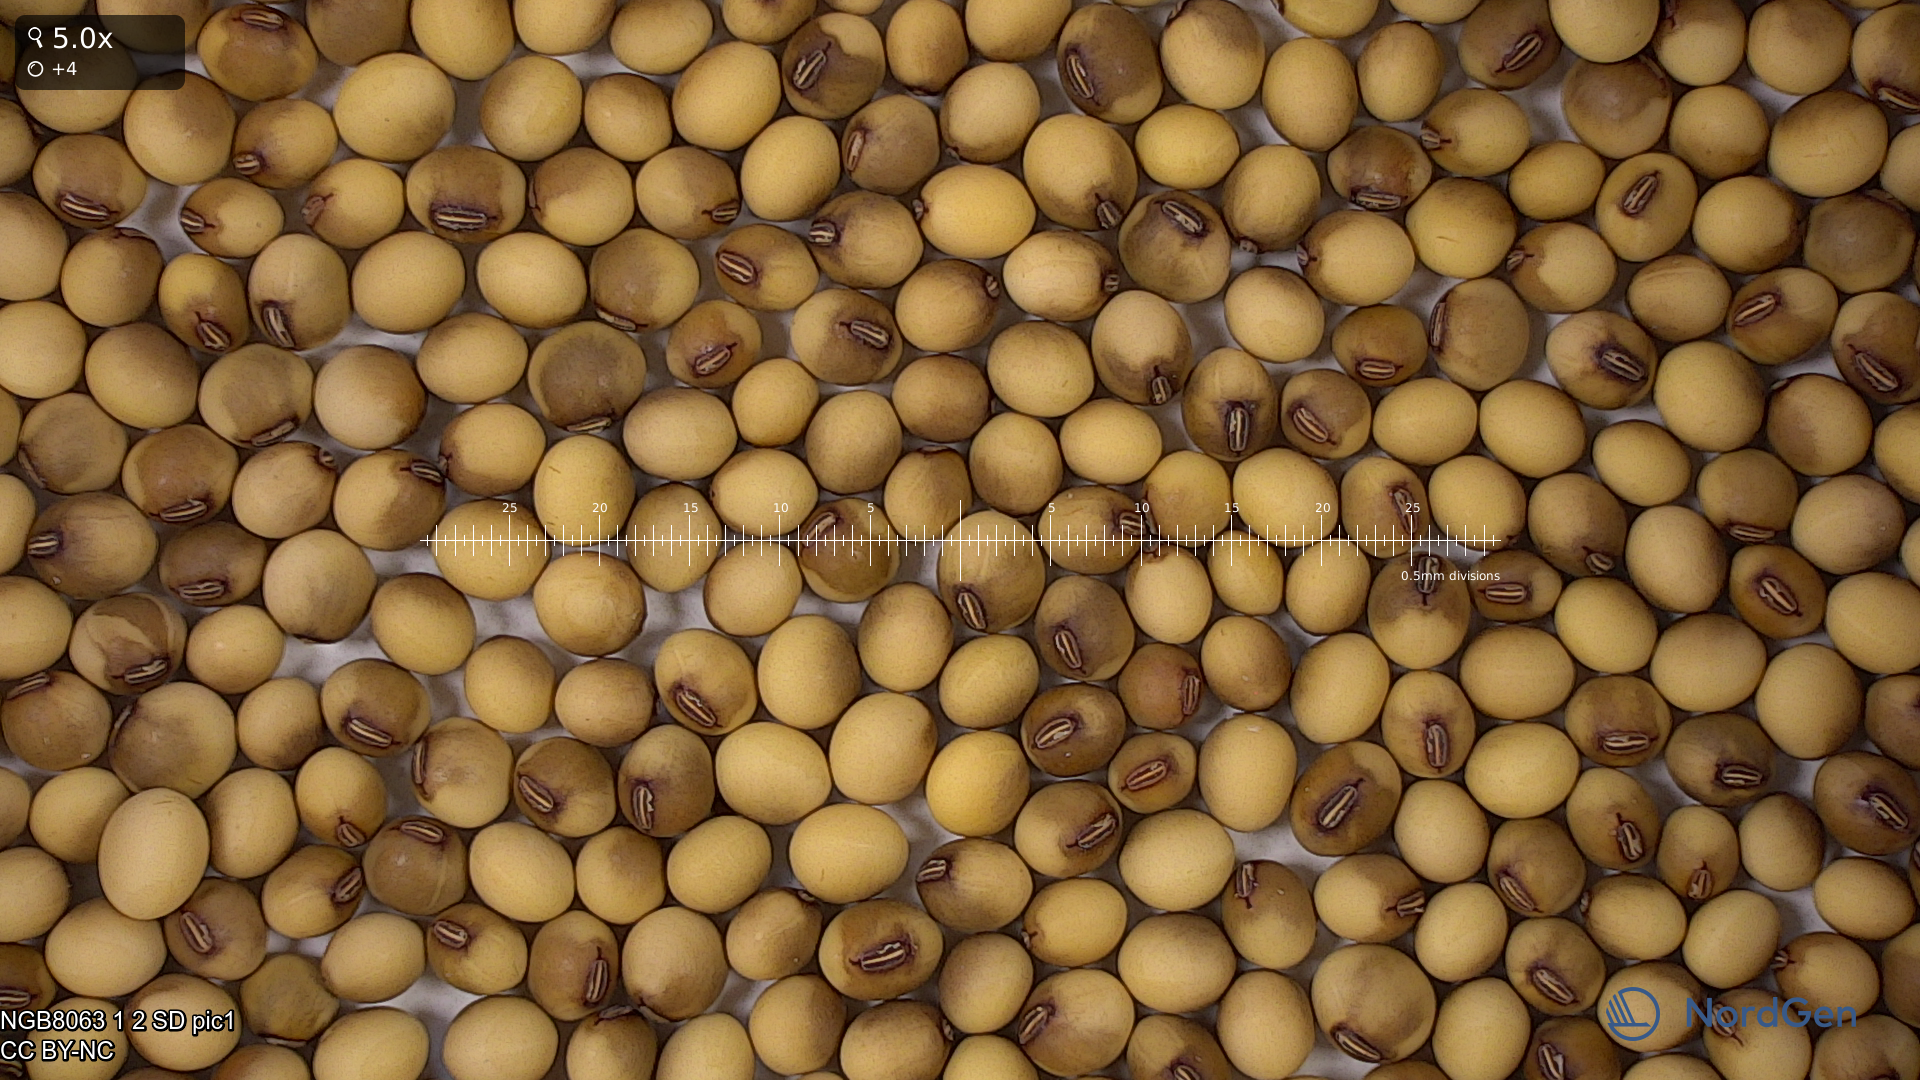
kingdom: Plantae
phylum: Tracheophyta
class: Magnoliopsida
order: Fabales
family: Fabaceae
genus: Glycine
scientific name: Glycine max
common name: Soya-bean
